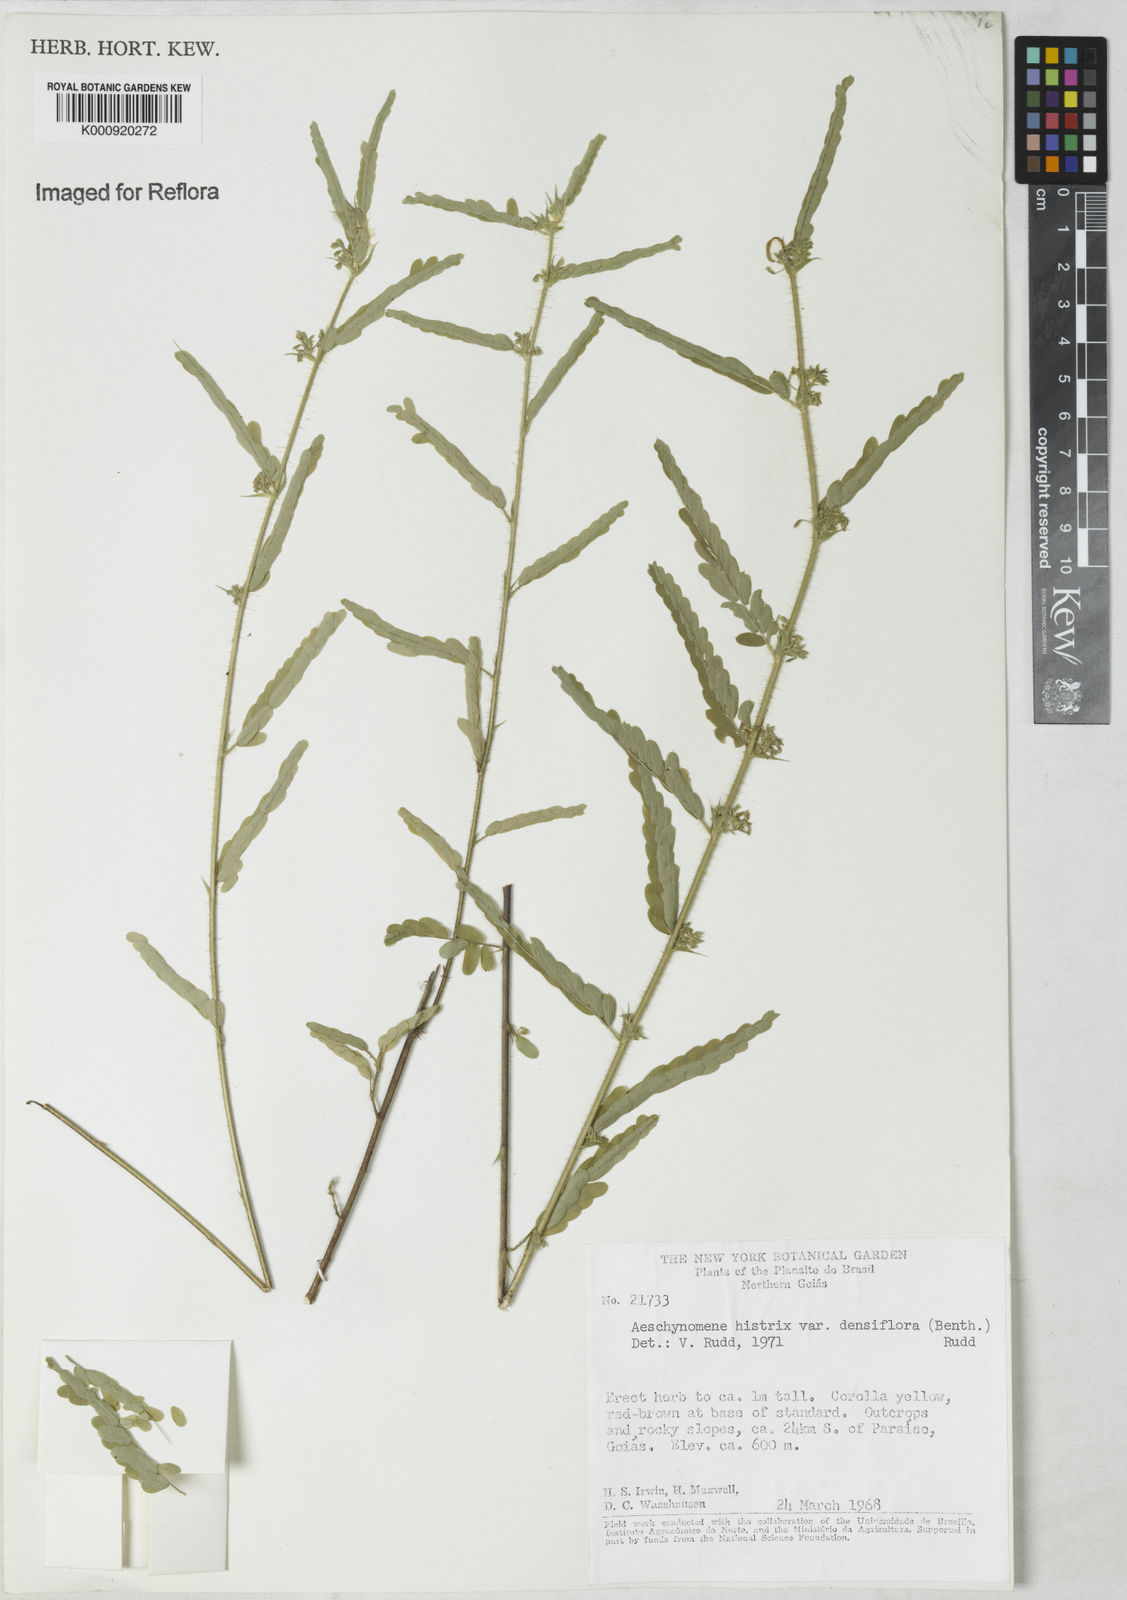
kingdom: Plantae
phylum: Tracheophyta
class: Magnoliopsida
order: Fabales
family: Fabaceae
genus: Ctenodon
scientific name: Ctenodon histrix
